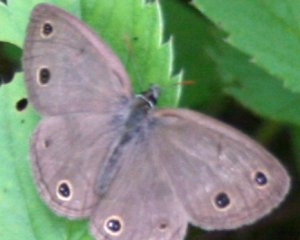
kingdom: Animalia
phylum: Arthropoda
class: Insecta
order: Lepidoptera
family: Nymphalidae
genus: Euptychia
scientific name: Euptychia cymela
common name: Little Wood Satyr
